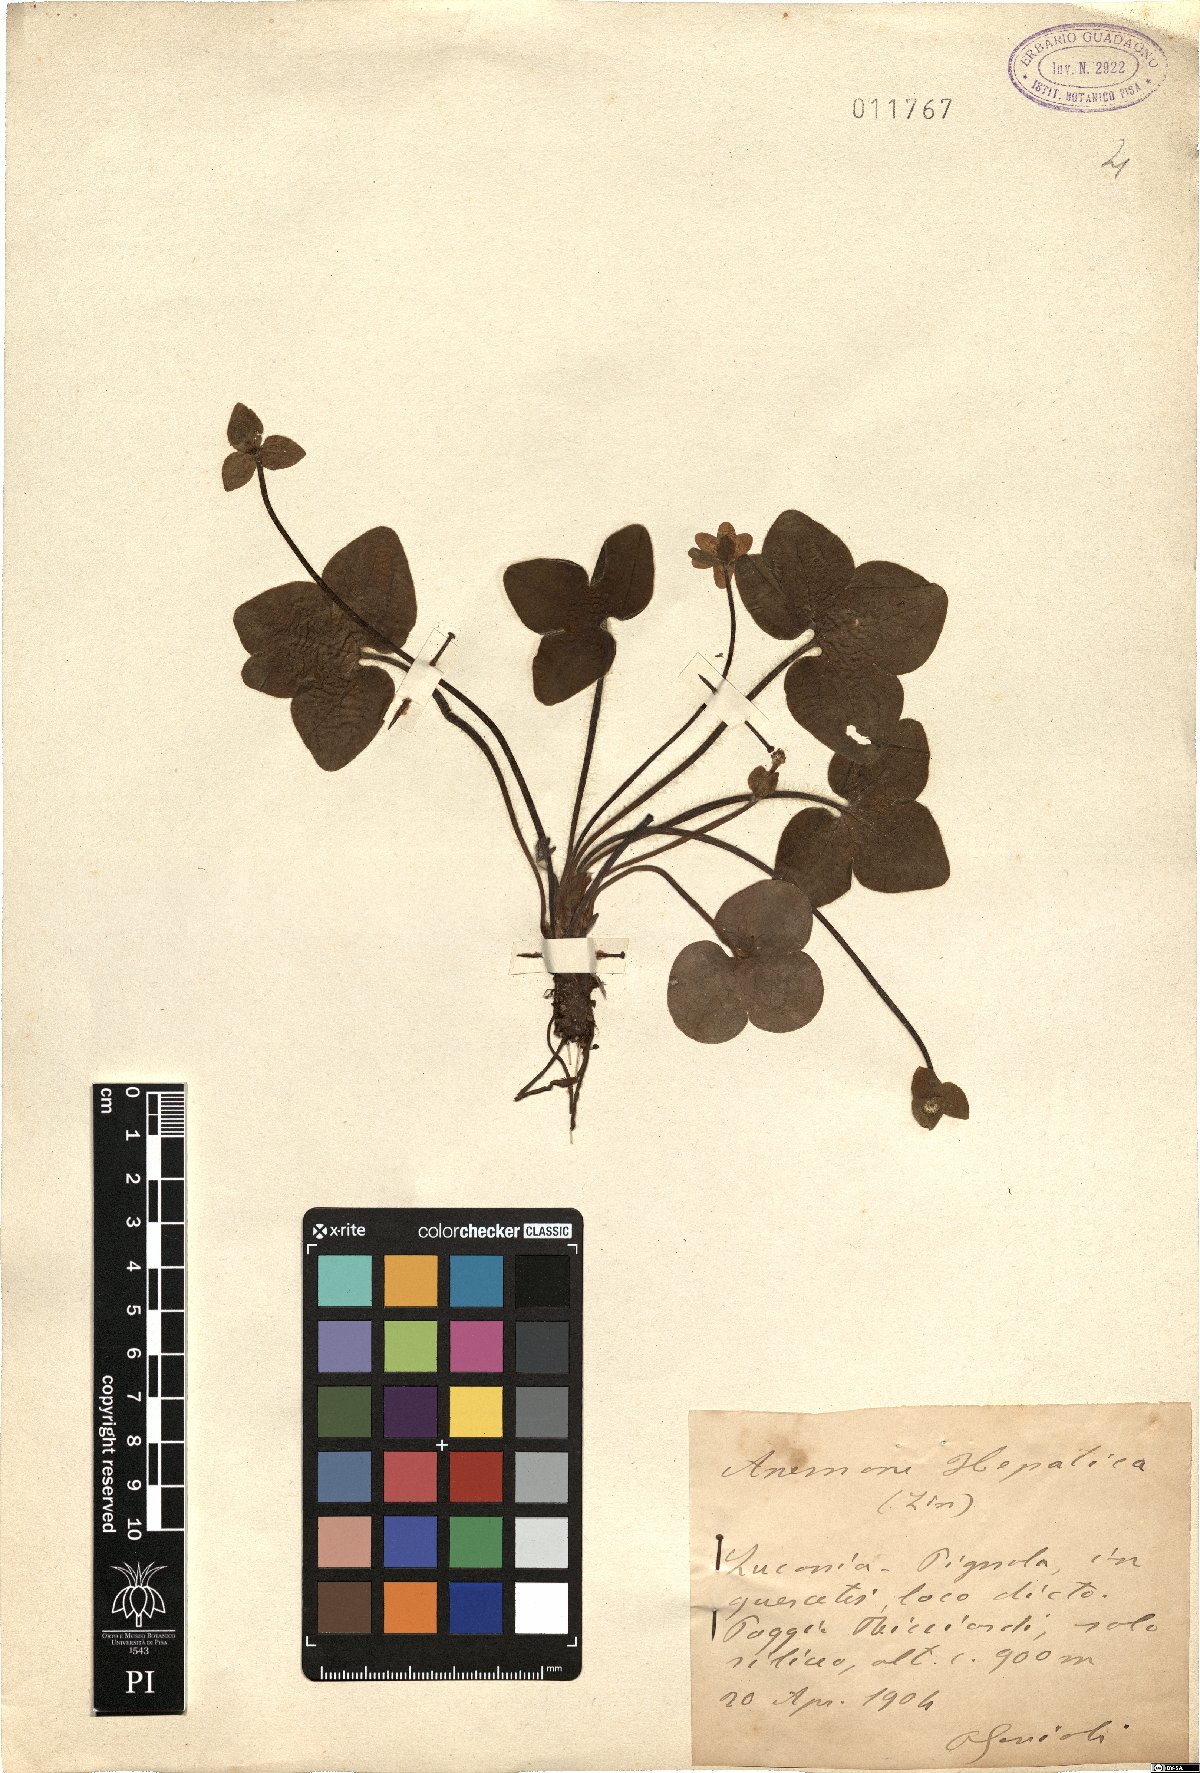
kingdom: Plantae
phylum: Tracheophyta
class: Magnoliopsida
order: Ranunculales
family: Ranunculaceae
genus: Hepatica
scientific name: Hepatica nobilis
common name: Liverleaf
